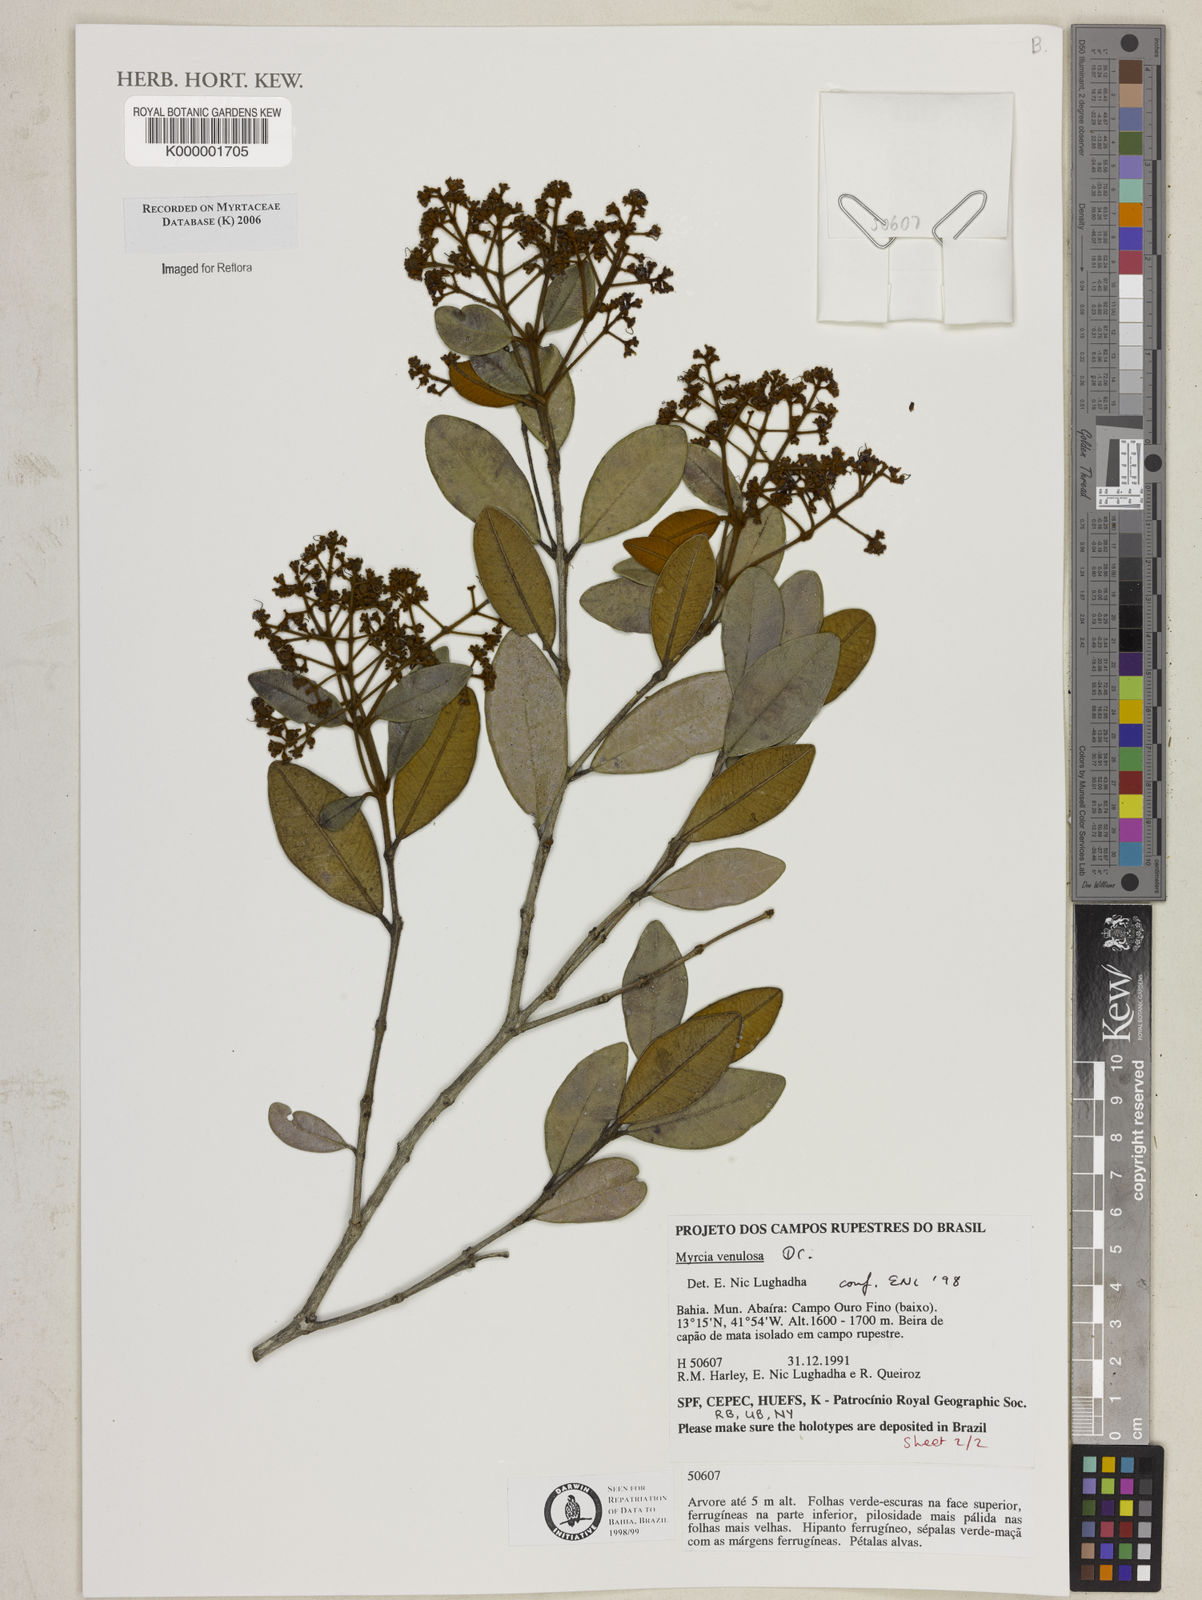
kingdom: Plantae
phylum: Tracheophyta
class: Magnoliopsida
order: Myrtales
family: Myrtaceae
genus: Myrcia
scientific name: Myrcia venulosa
